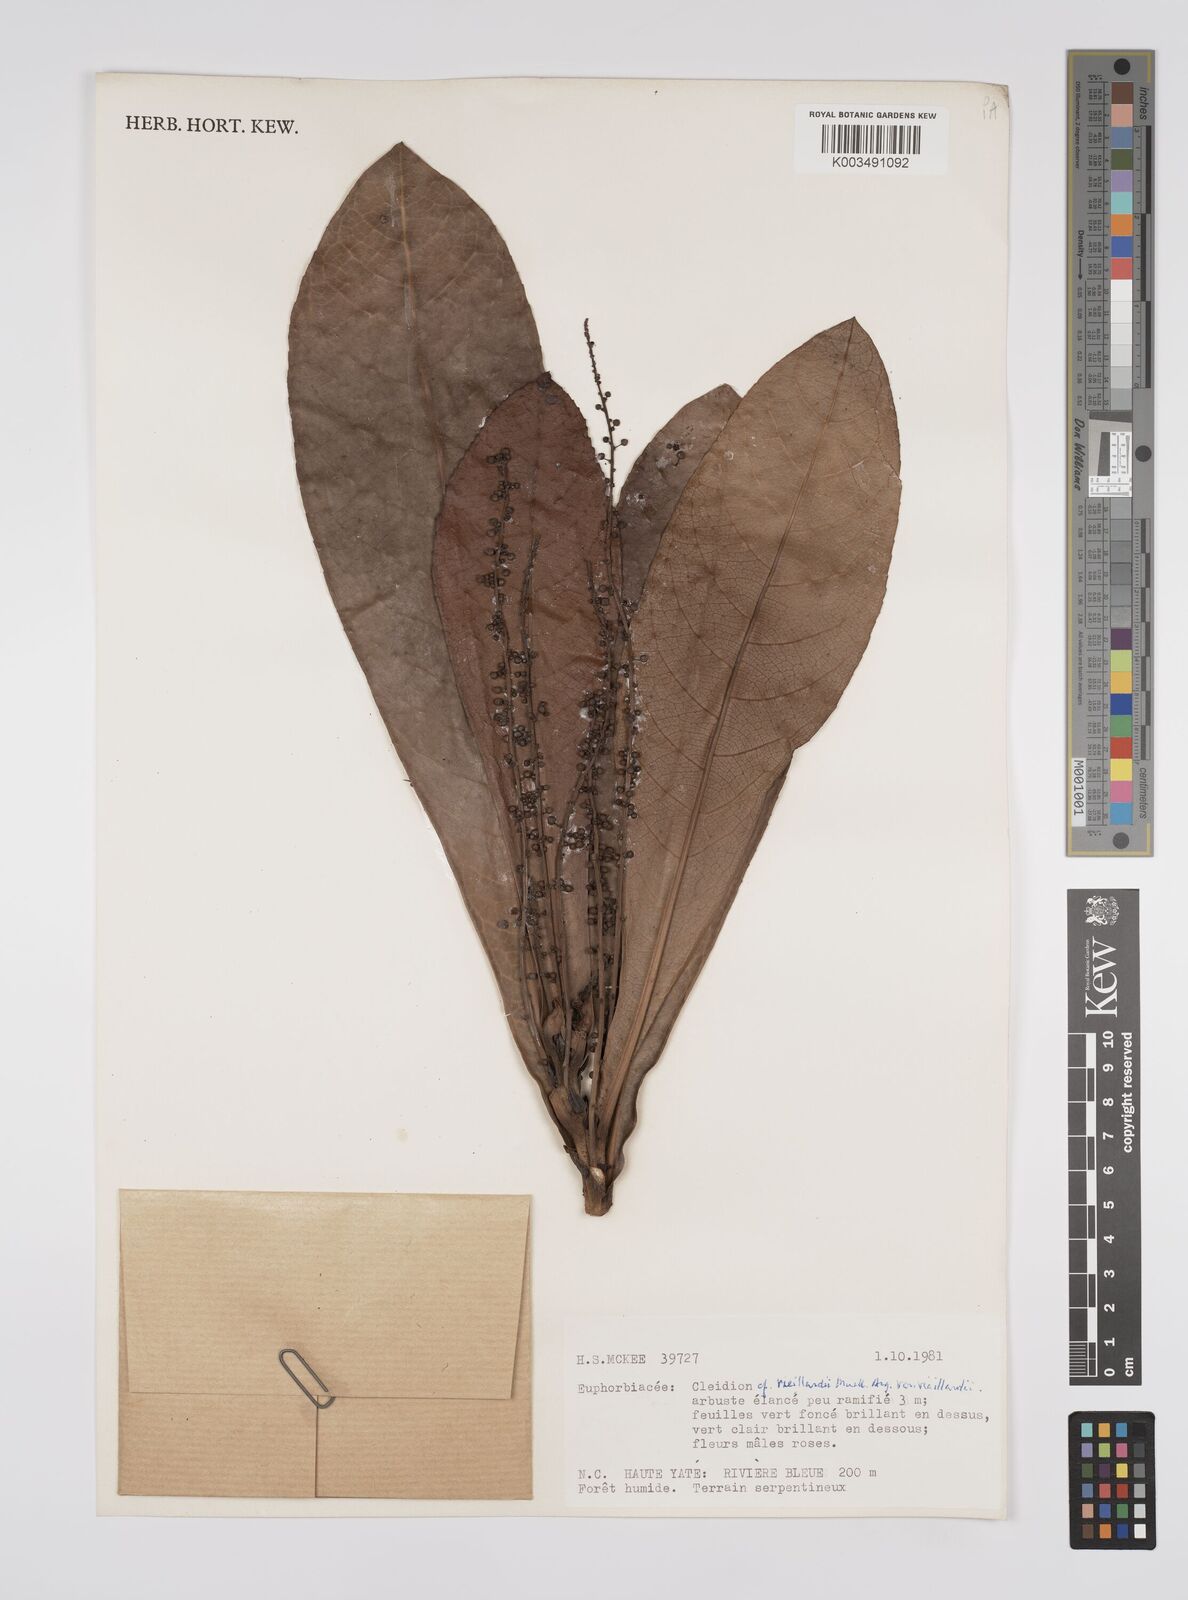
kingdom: Plantae
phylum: Tracheophyta
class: Magnoliopsida
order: Malpighiales
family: Euphorbiaceae
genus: Cleidion
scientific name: Cleidion vieillardii
